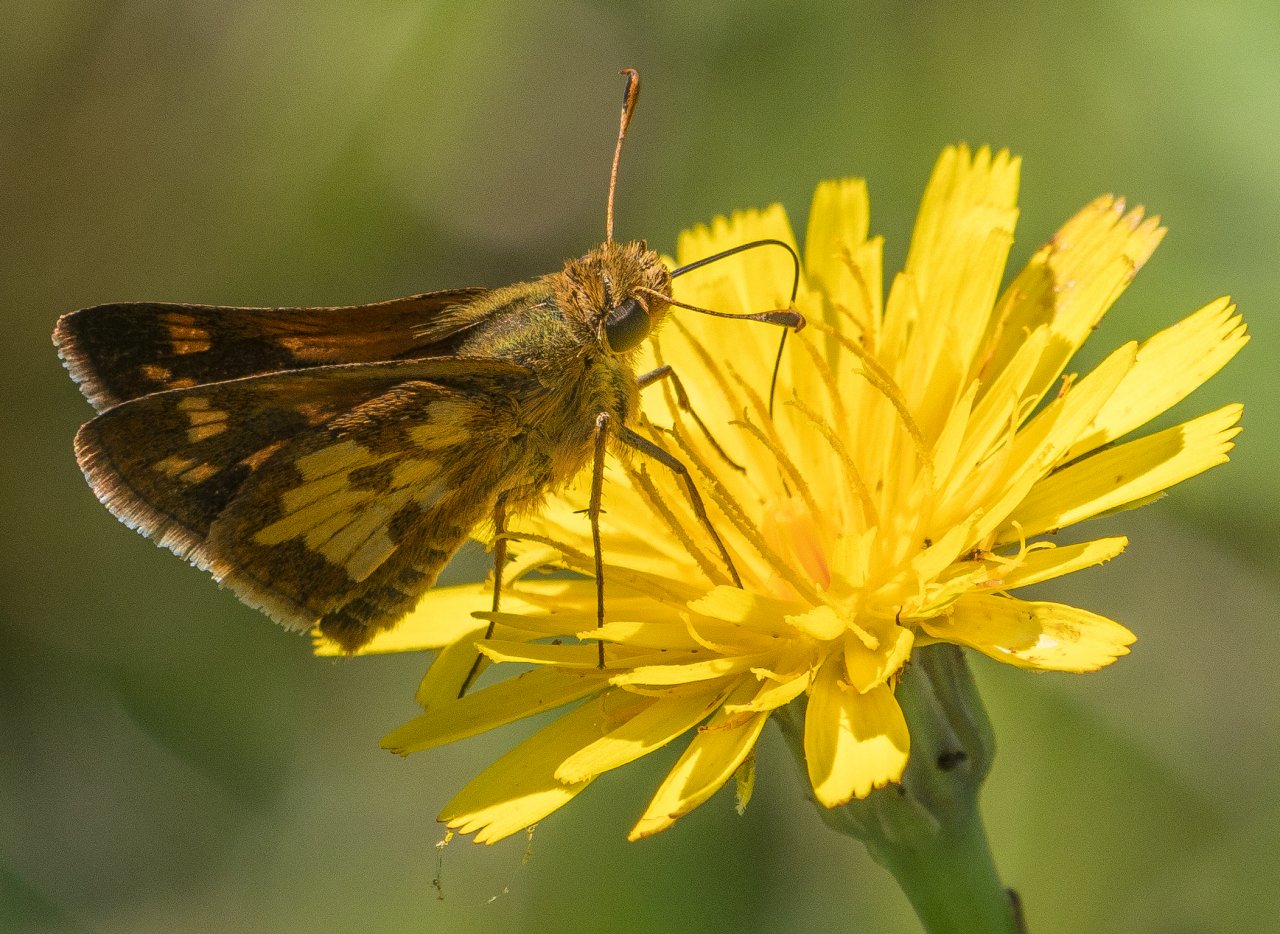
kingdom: Animalia
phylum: Arthropoda
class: Insecta
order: Lepidoptera
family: Hesperiidae
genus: Polites
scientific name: Polites coras
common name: Peck's Skipper
